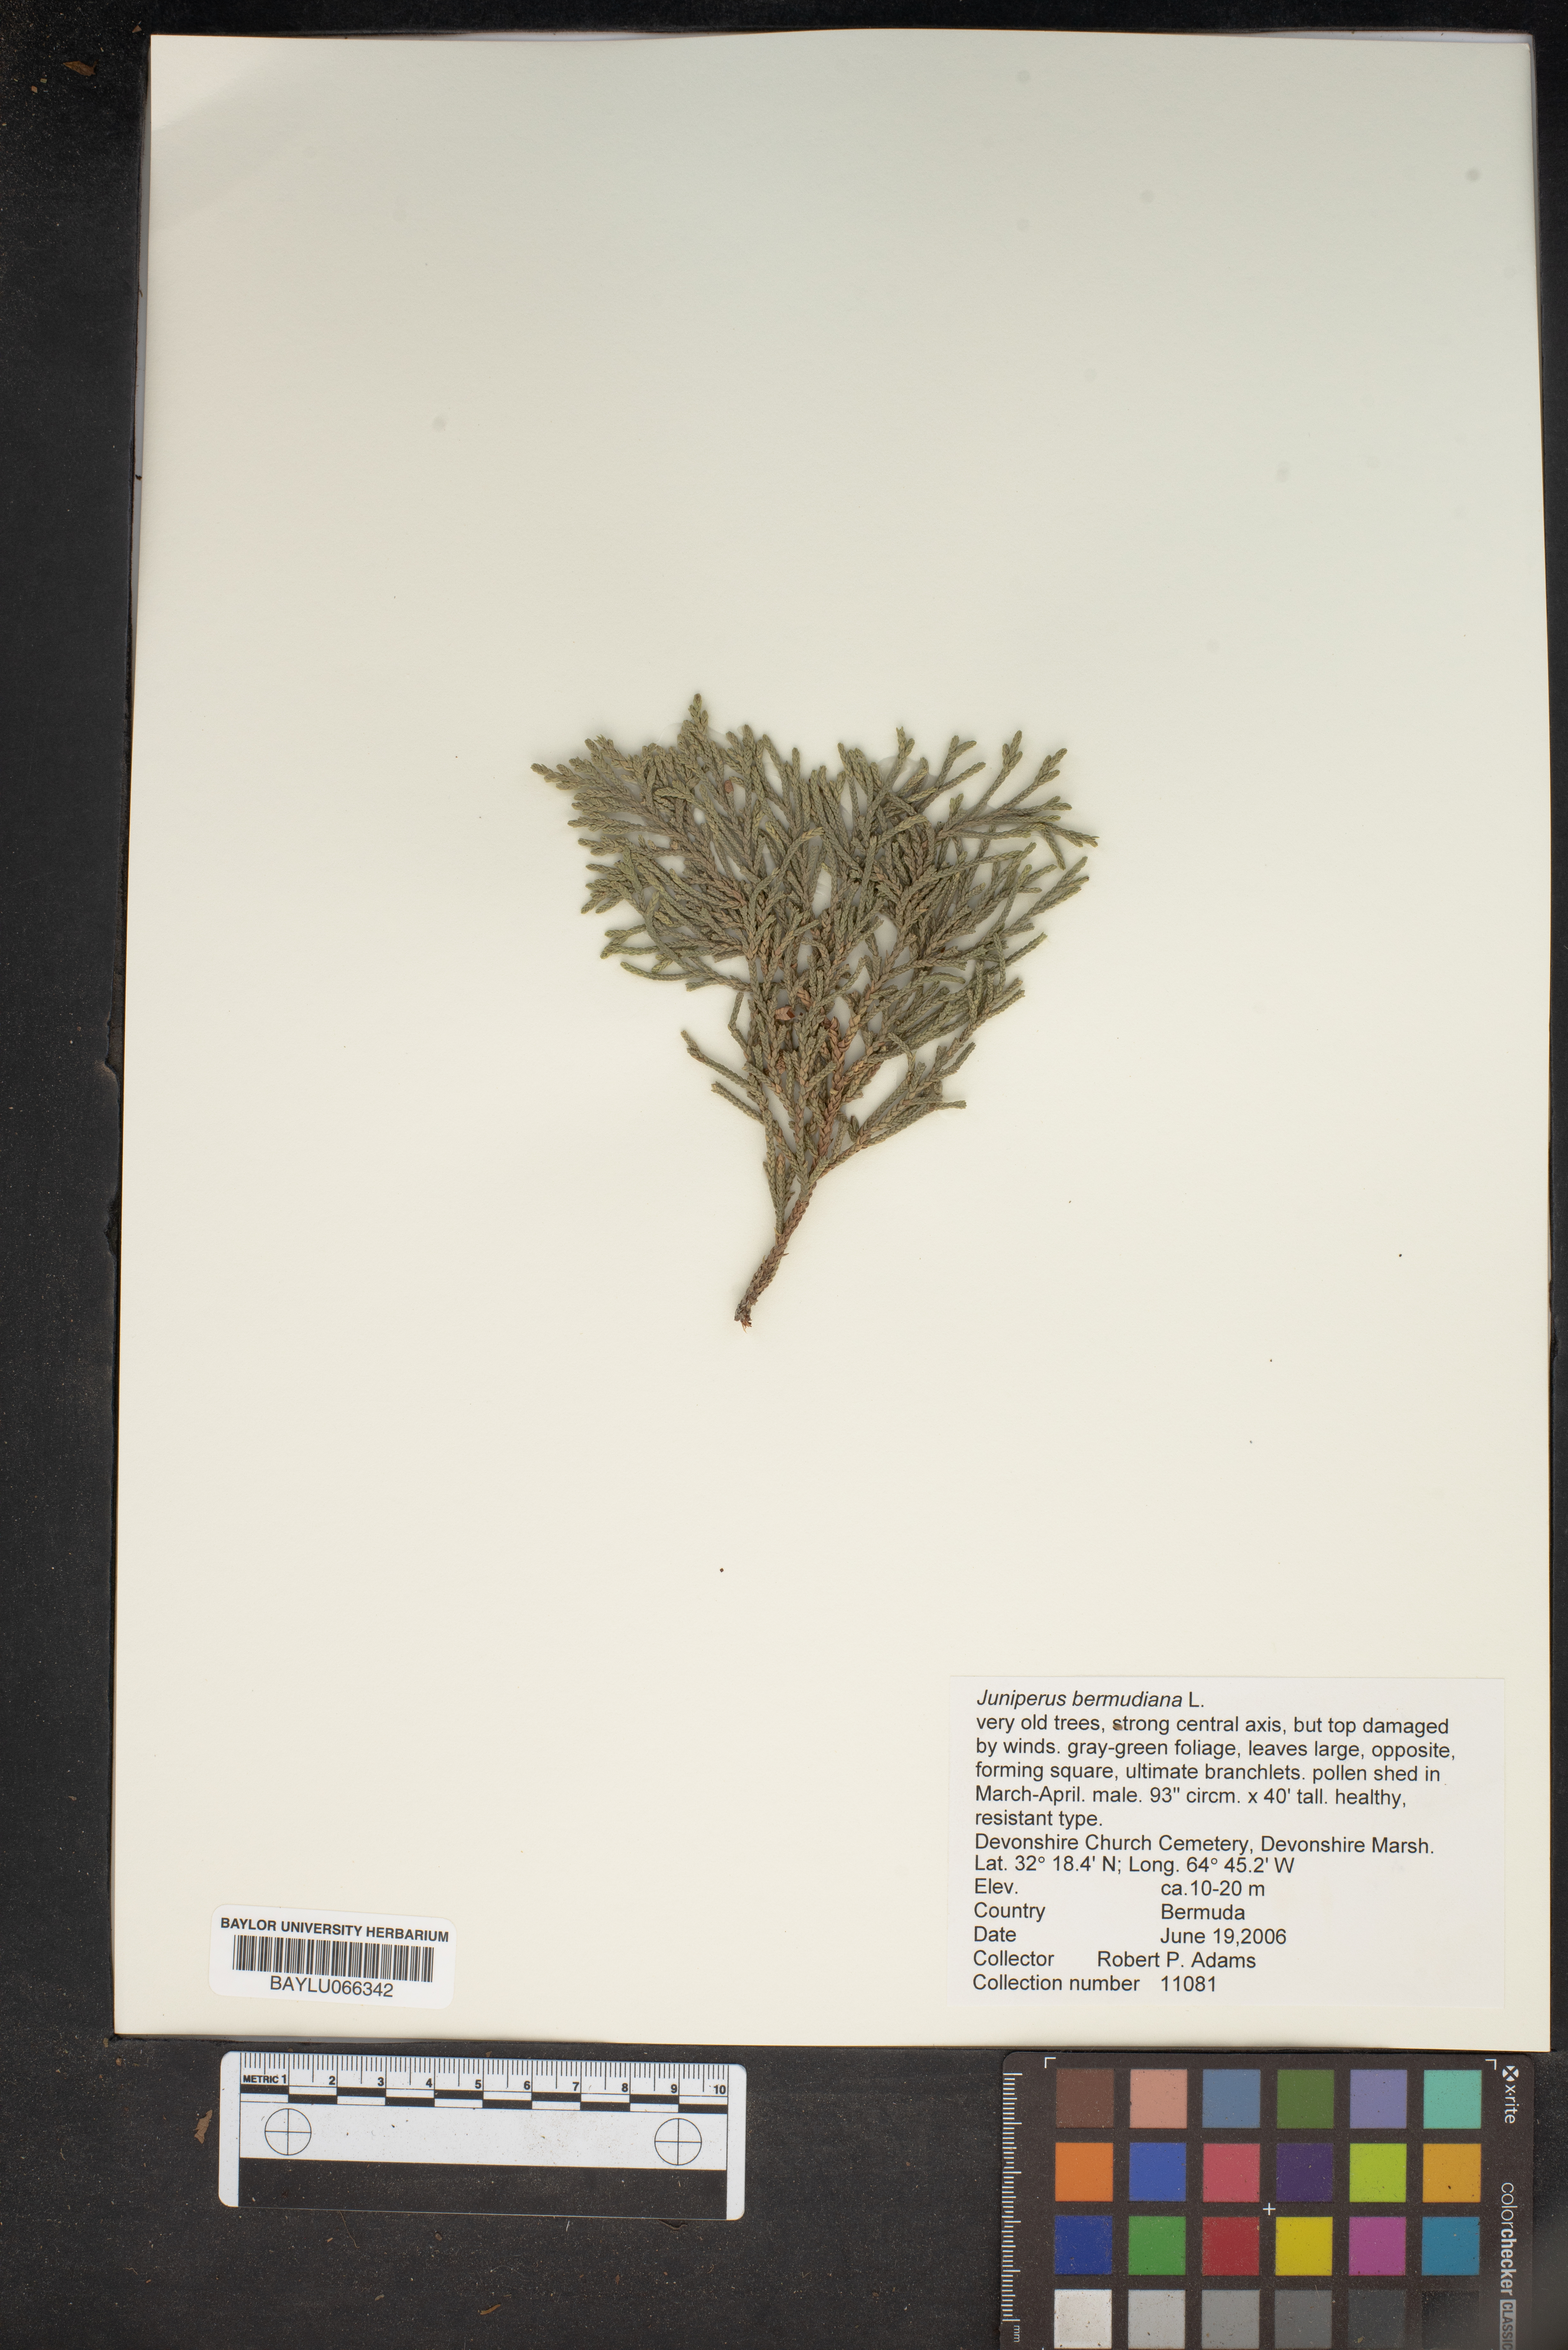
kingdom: Plantae
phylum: Tracheophyta
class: Pinopsida
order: Pinales
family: Cupressaceae
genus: Juniperus
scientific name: Juniperus bermudiana
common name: Bermuda juniper
